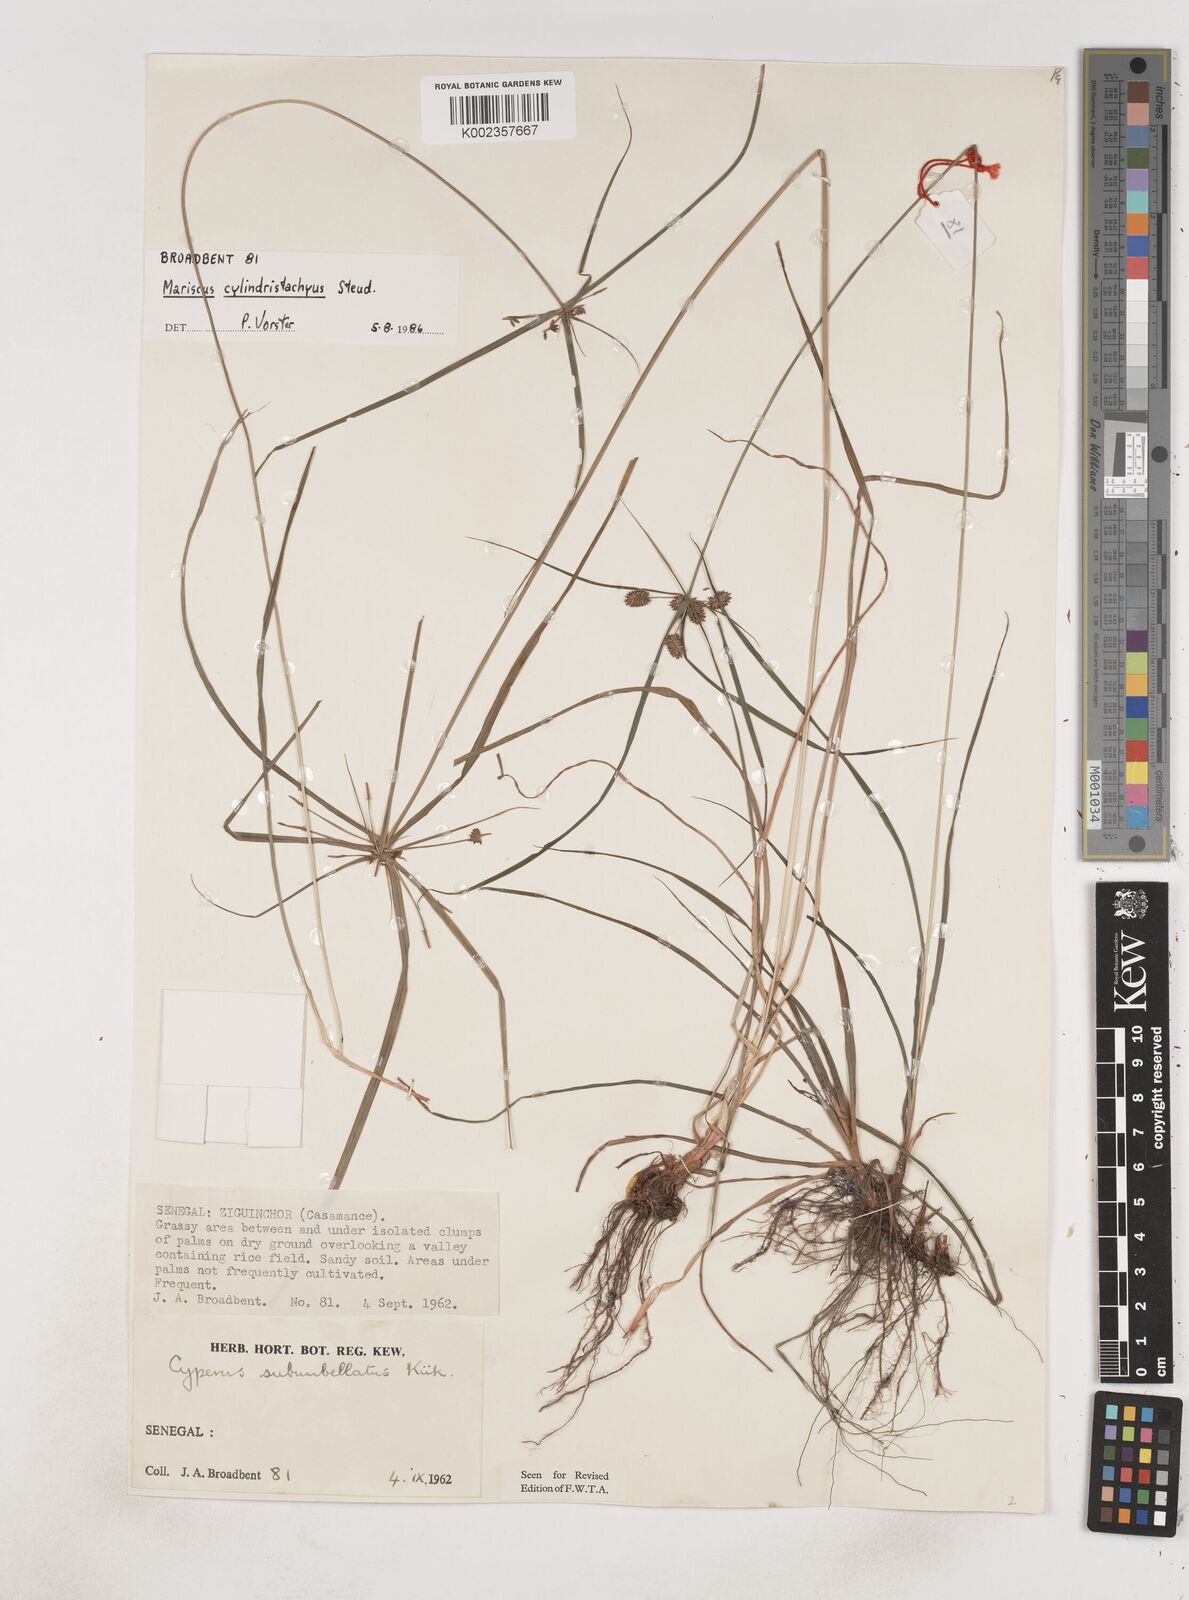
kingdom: Plantae
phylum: Tracheophyta
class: Liliopsida
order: Poales
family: Cyperaceae
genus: Cyperus
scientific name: Cyperus sublimis
